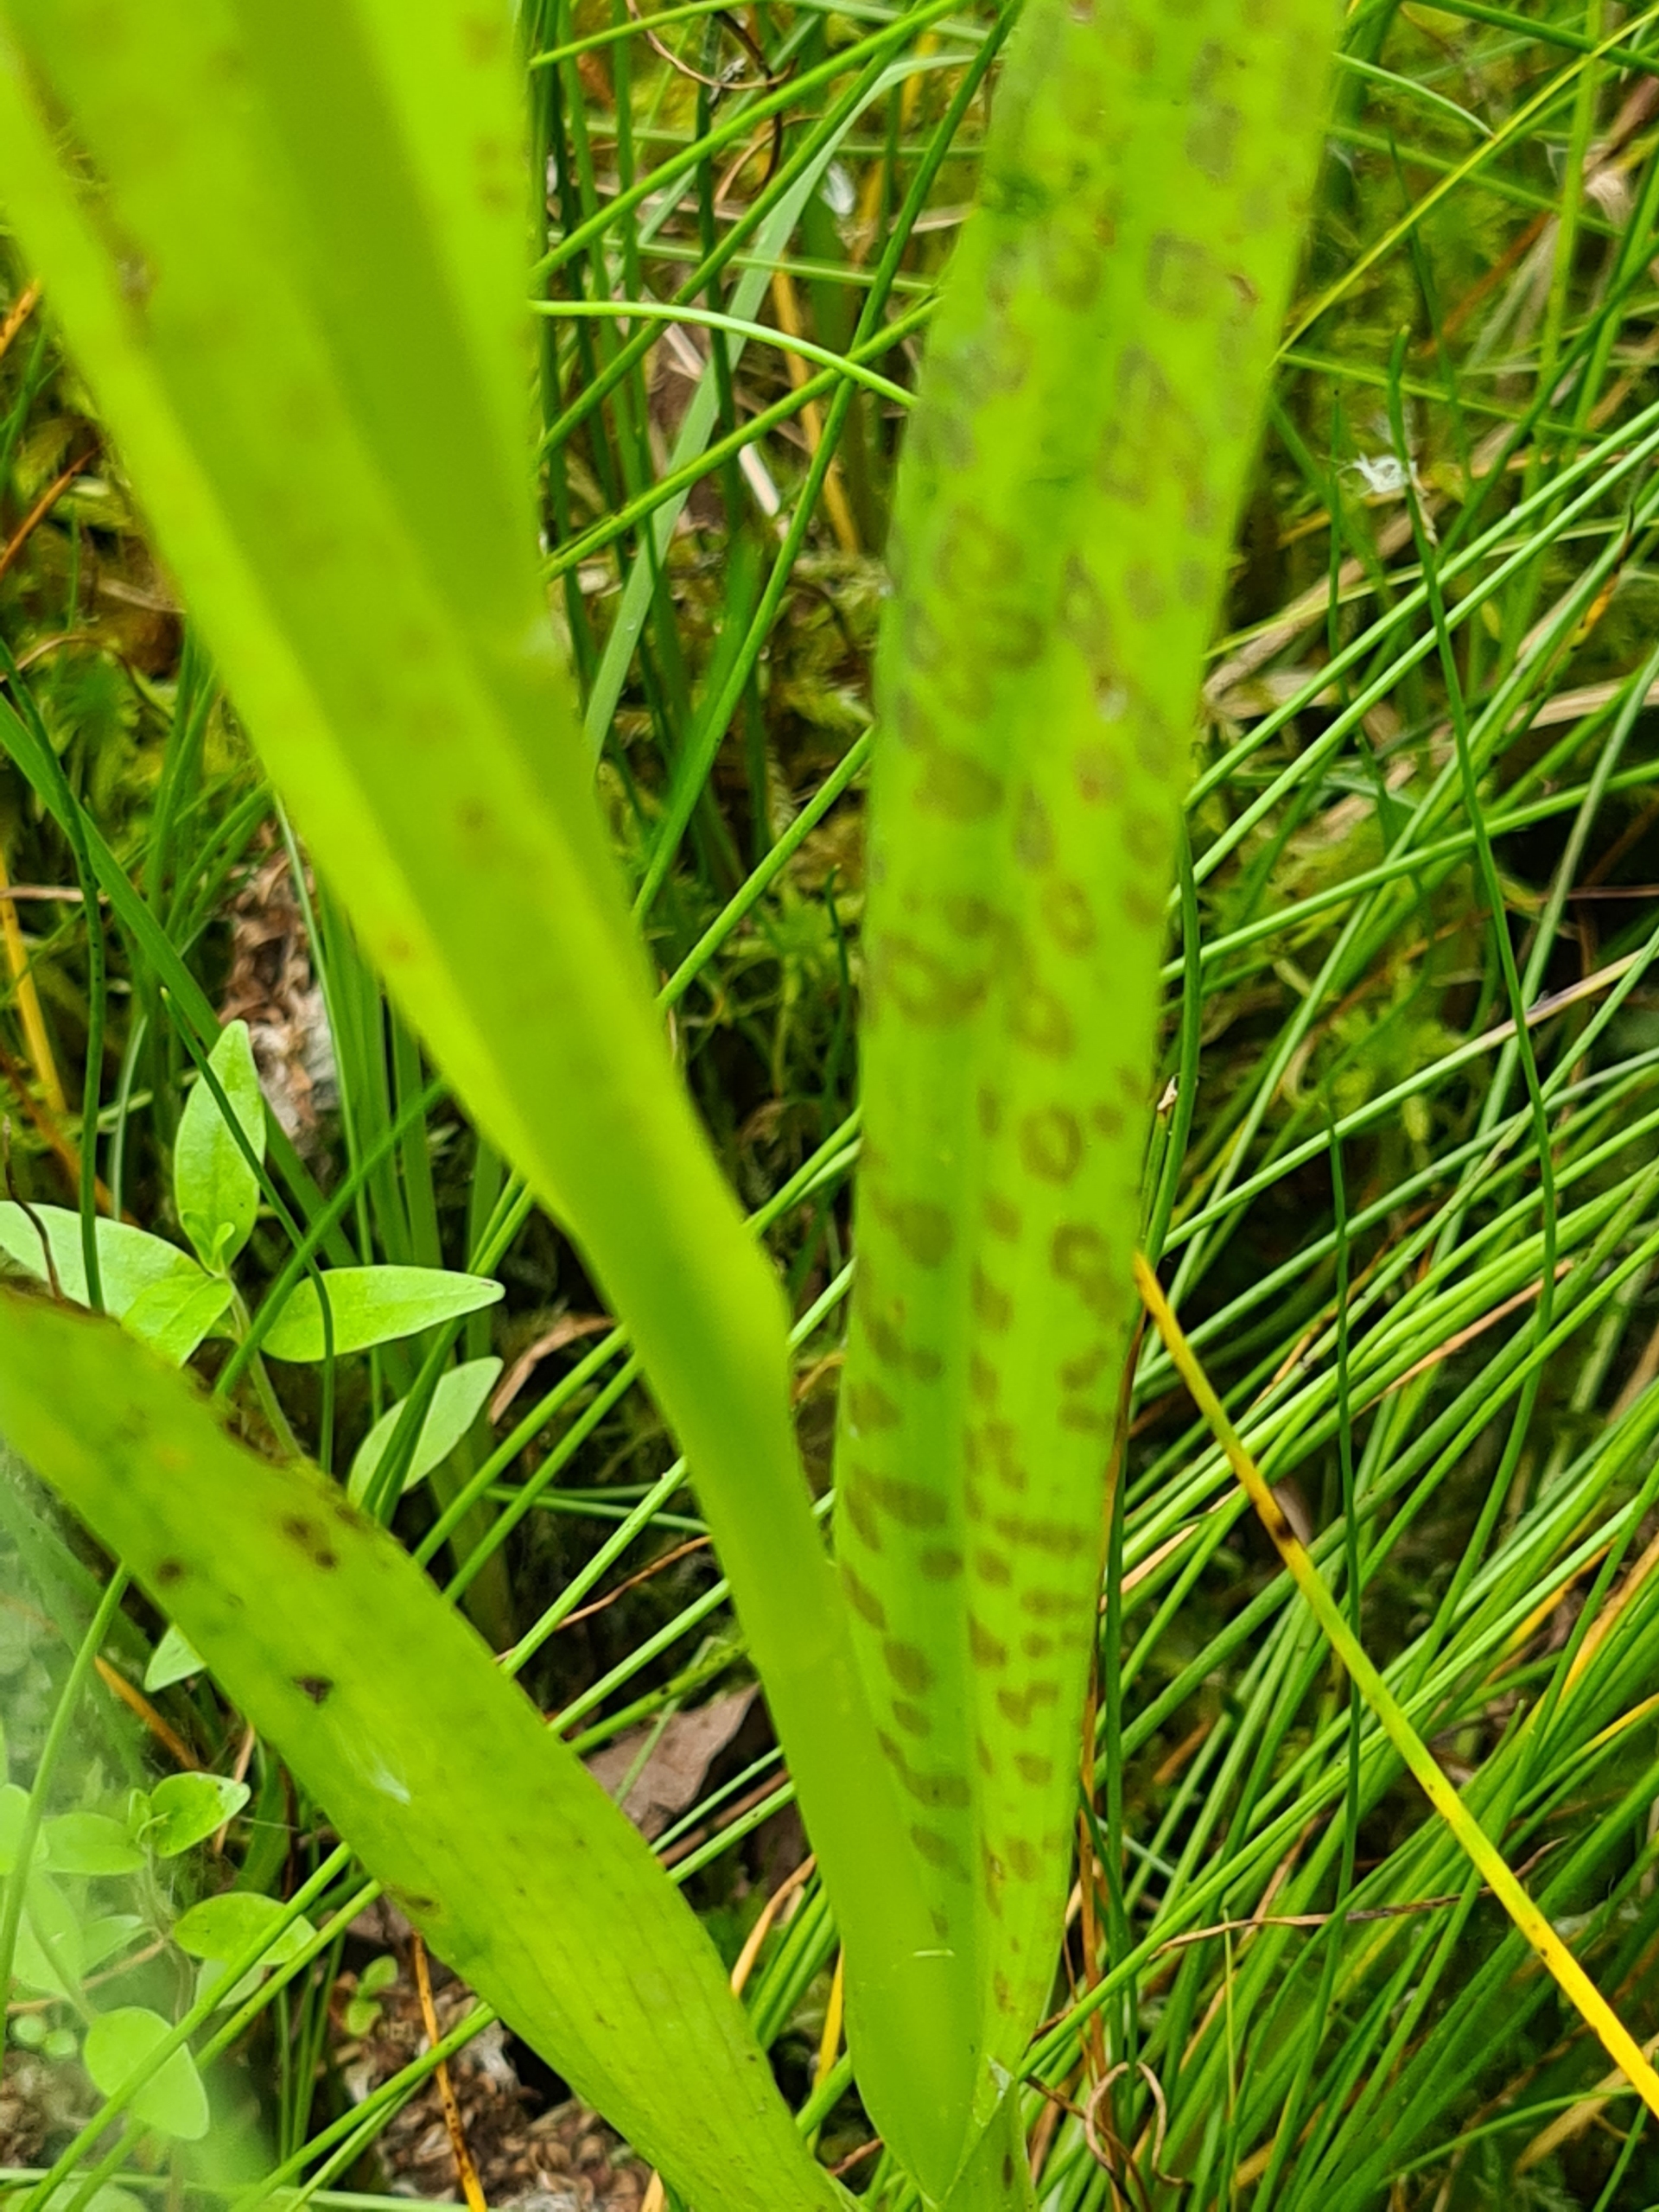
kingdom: Plantae
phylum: Tracheophyta
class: Liliopsida
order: Asparagales
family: Orchidaceae
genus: Dactylorhiza
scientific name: Dactylorhiza majalis
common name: Priklæbet gøgeurt
